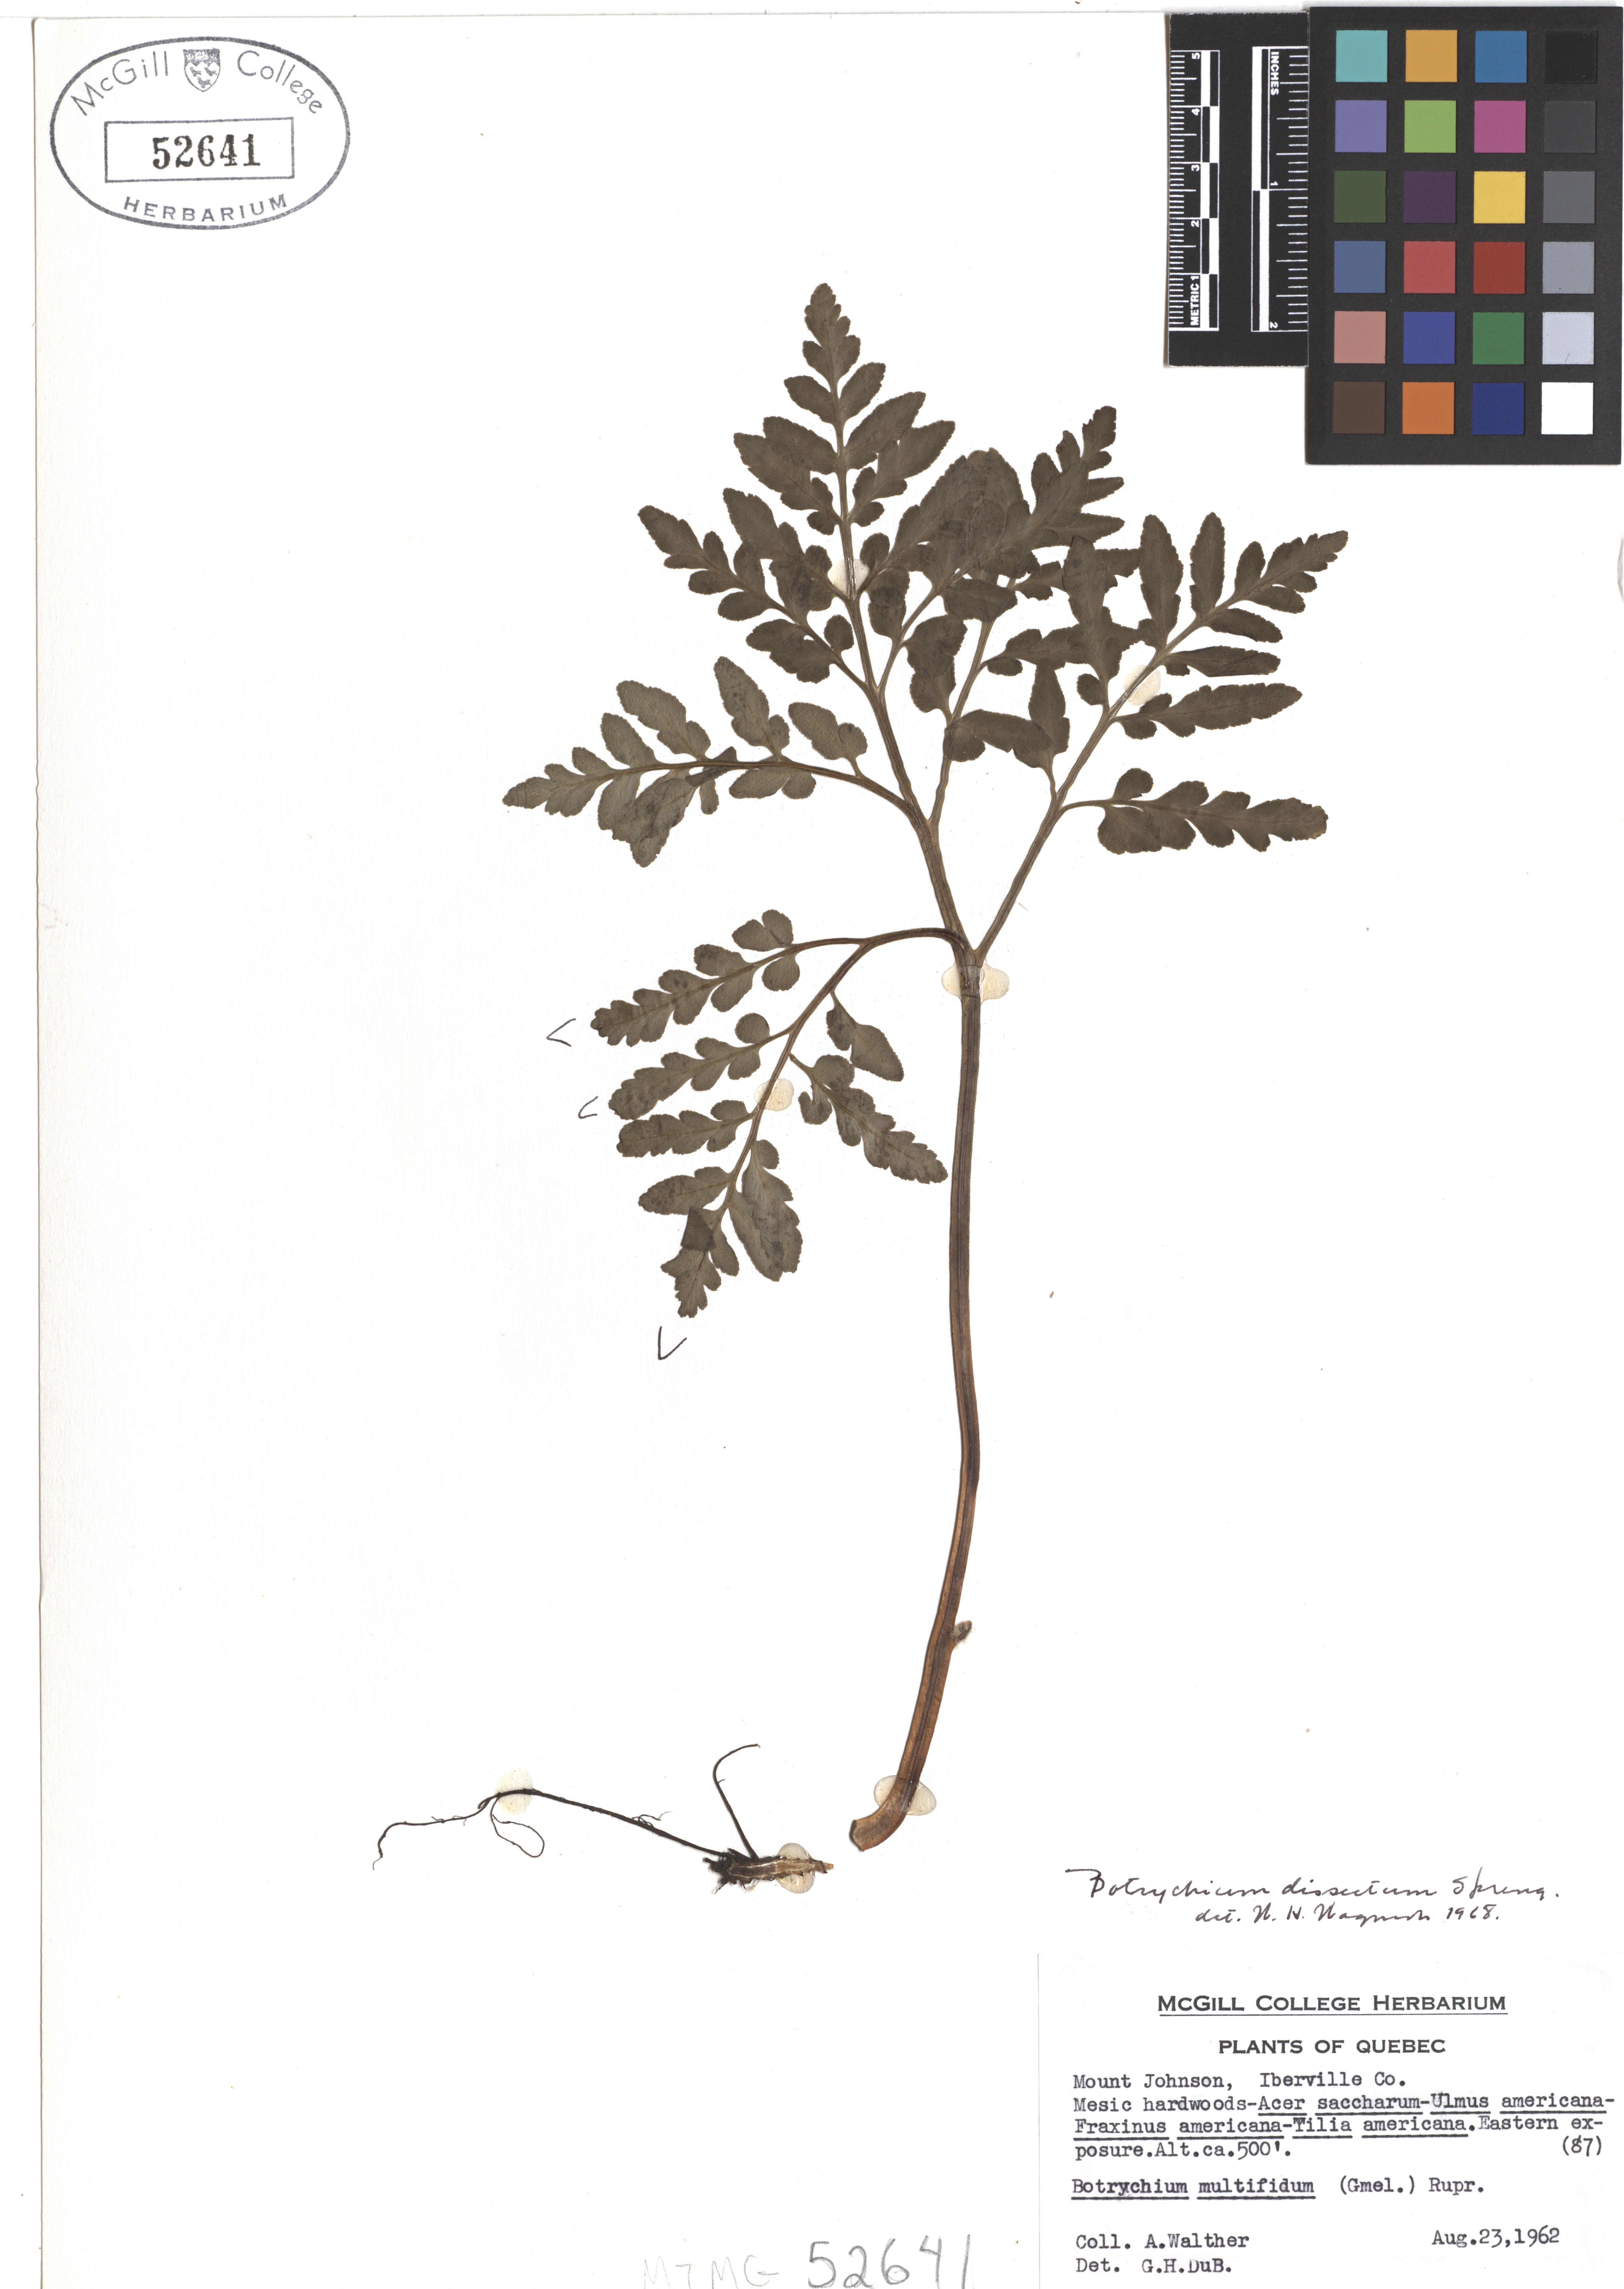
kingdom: Plantae
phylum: Tracheophyta
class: Polypodiopsida
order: Ophioglossales
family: Ophioglossaceae
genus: Sceptridium
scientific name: Sceptridium dissectum
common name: Cut-leaved grapefern
